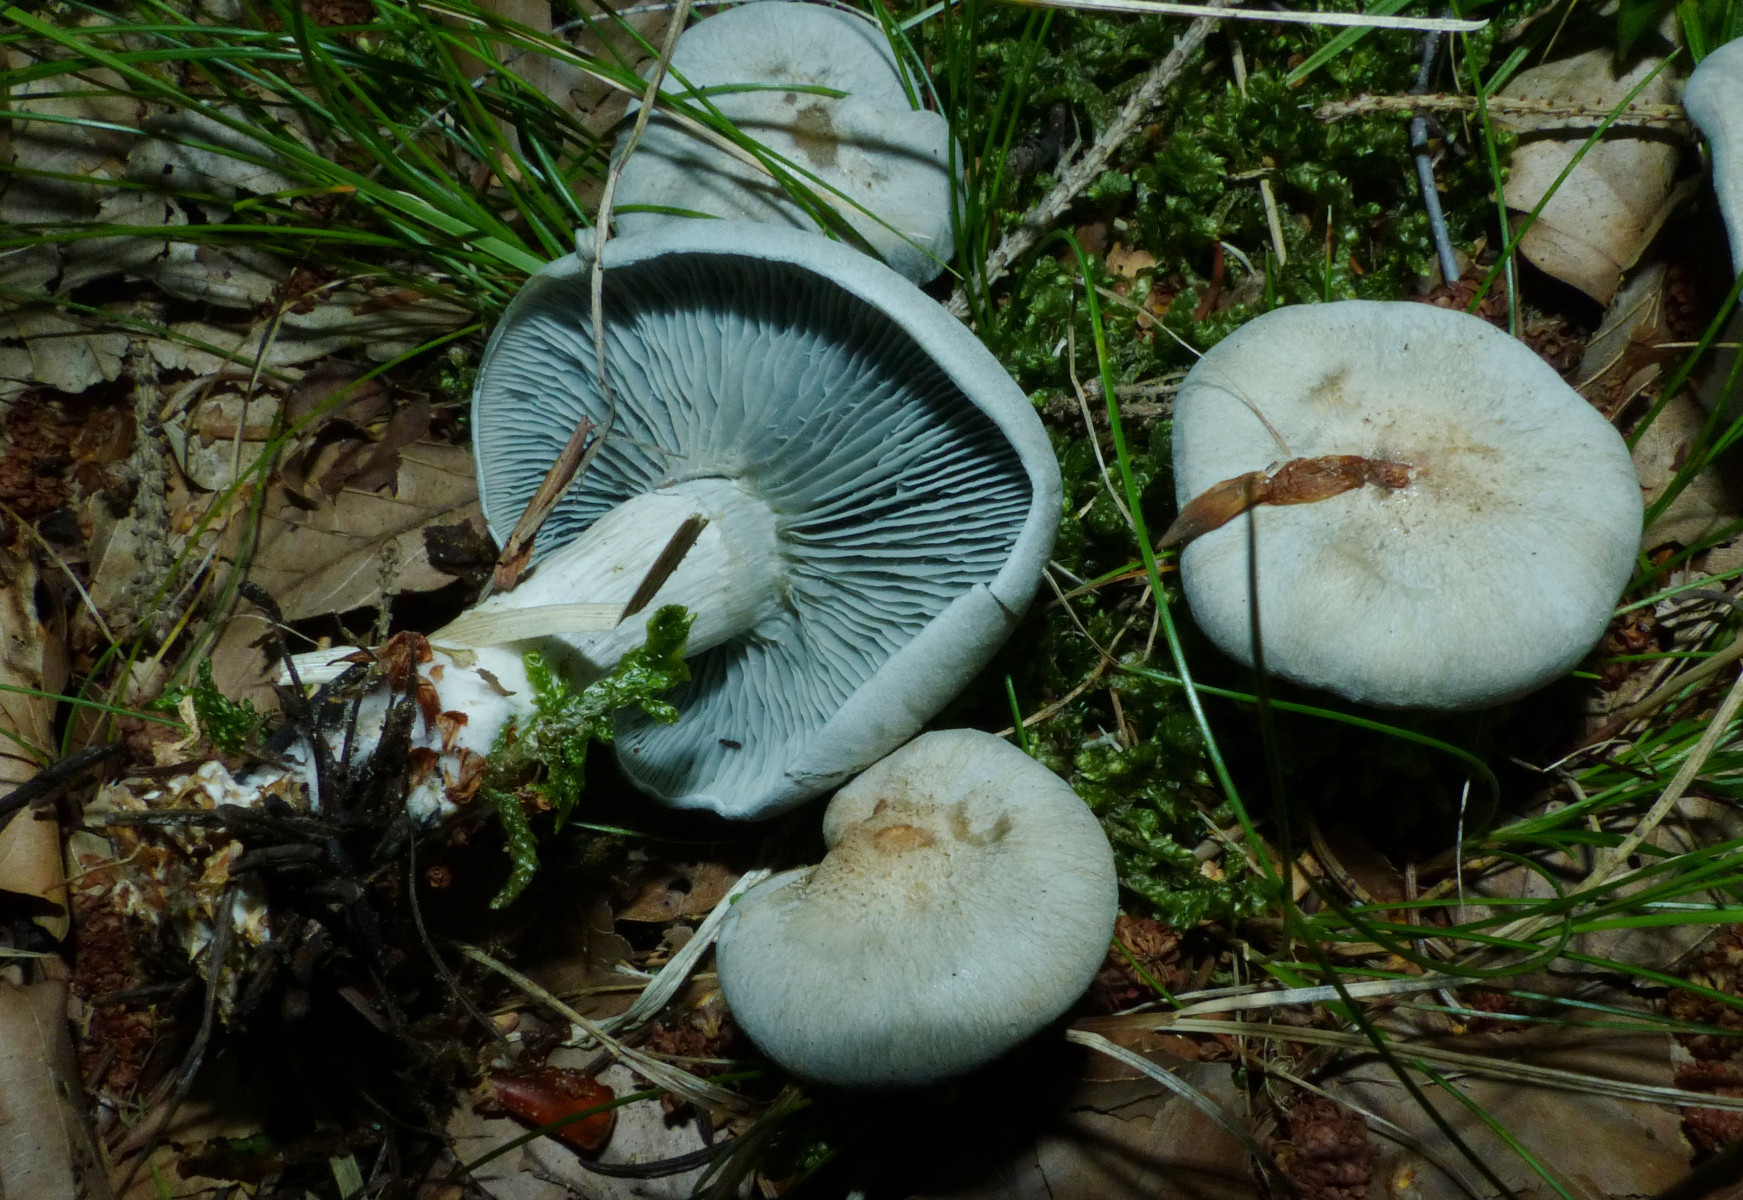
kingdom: Fungi
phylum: Basidiomycota
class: Agaricomycetes
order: Agaricales
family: Tricholomataceae
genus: Clitocybe
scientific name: Clitocybe odora
